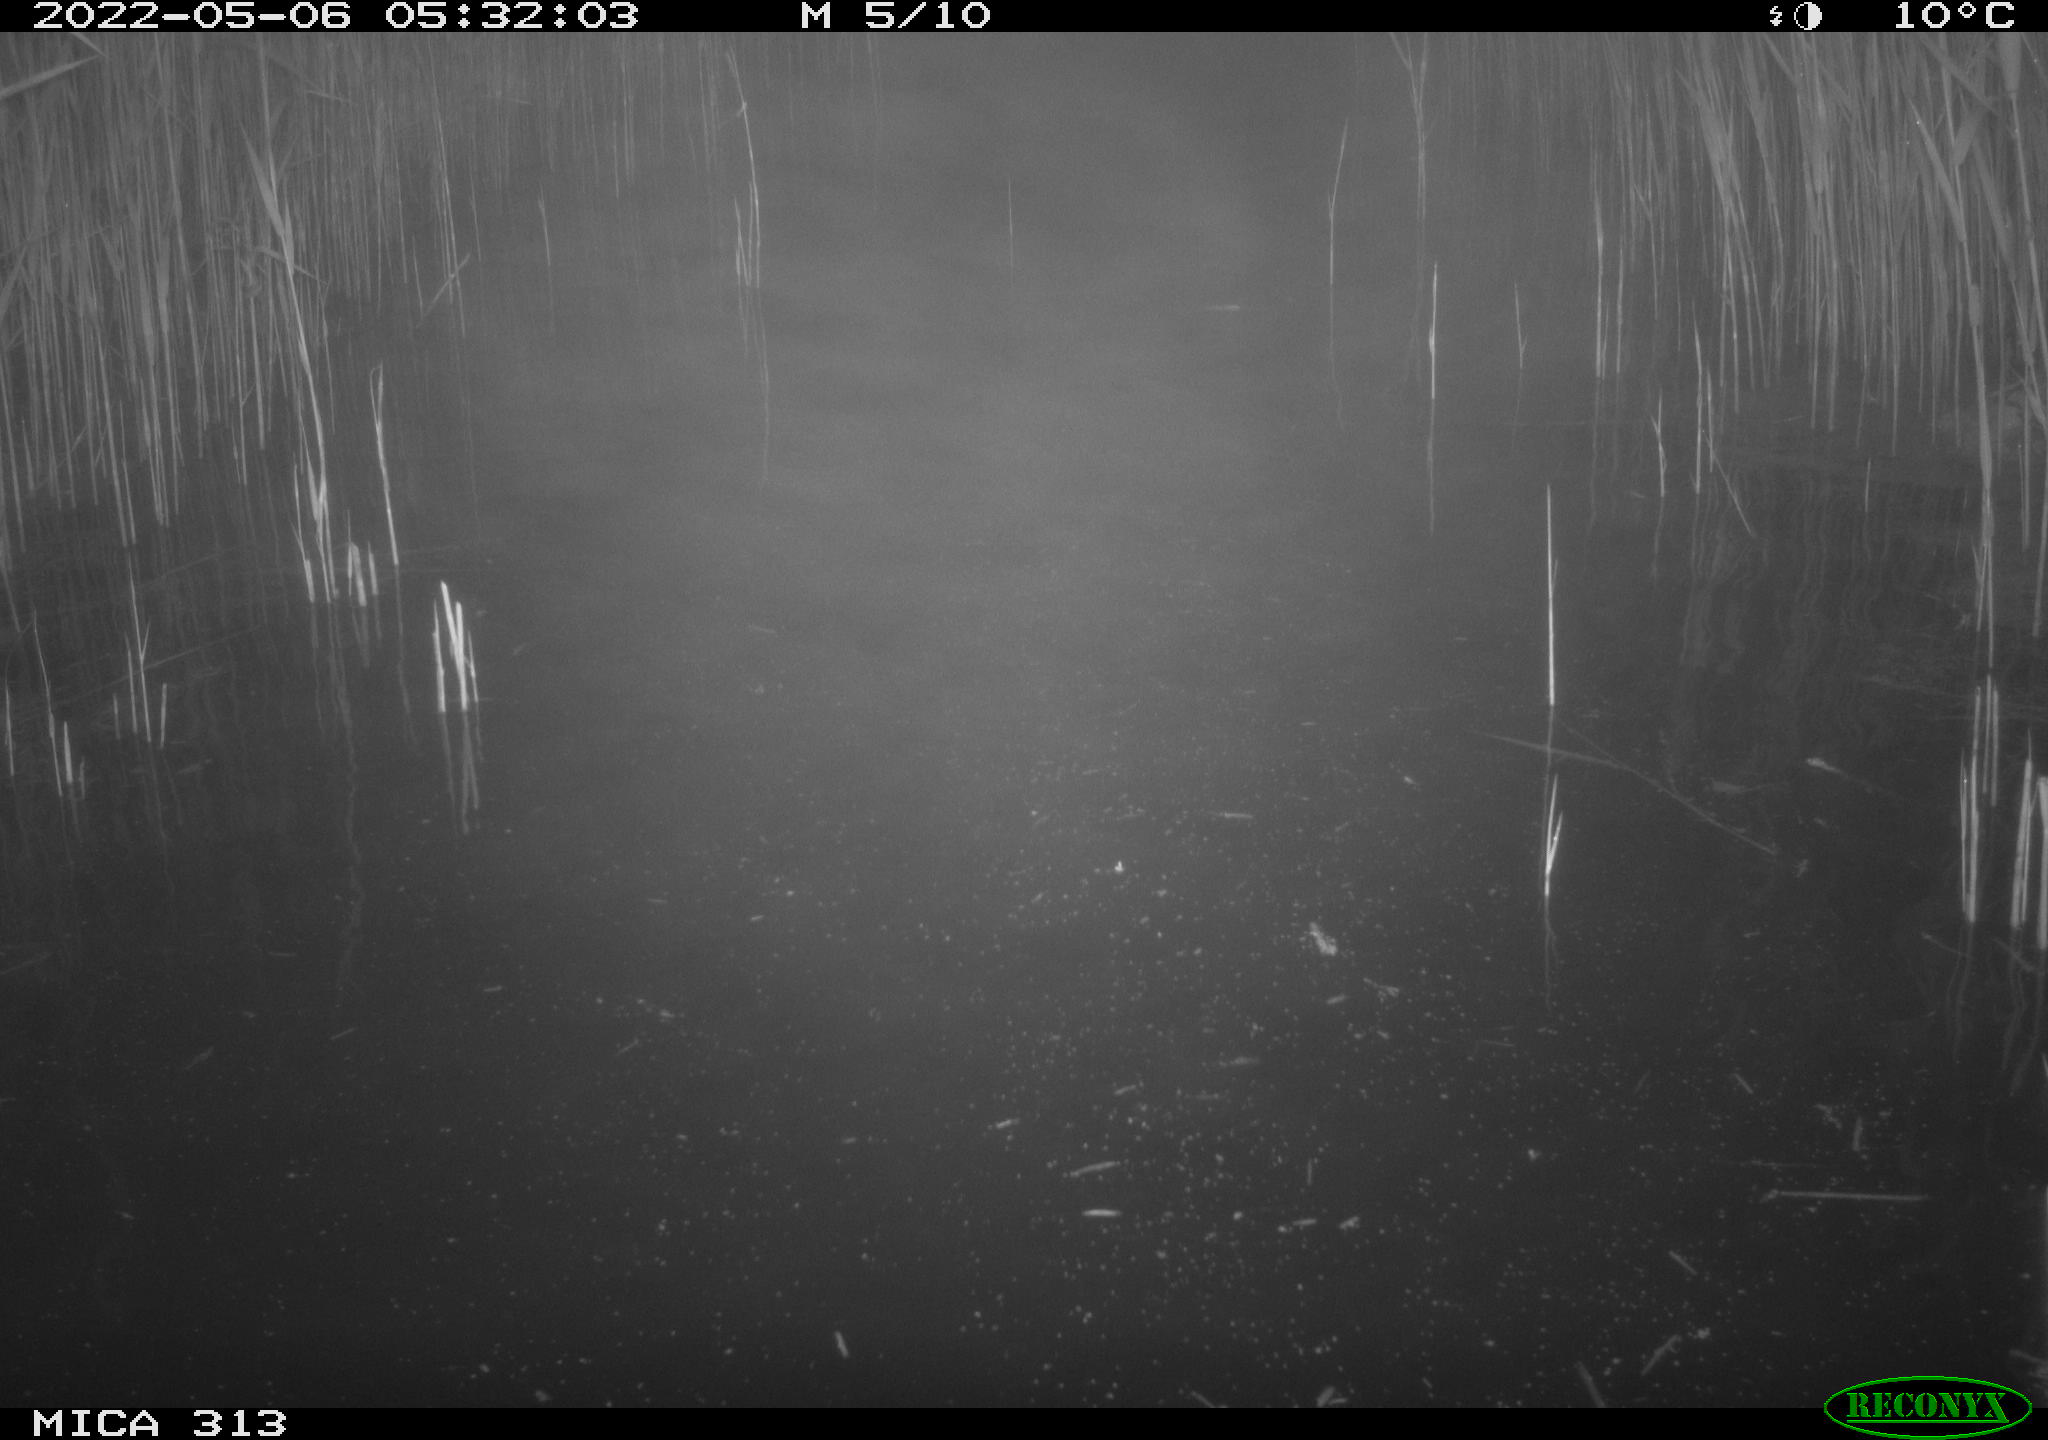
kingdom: Animalia
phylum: Chordata
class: Aves
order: Anseriformes
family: Anatidae
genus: Anas
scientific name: Anas platyrhynchos
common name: Mallard
